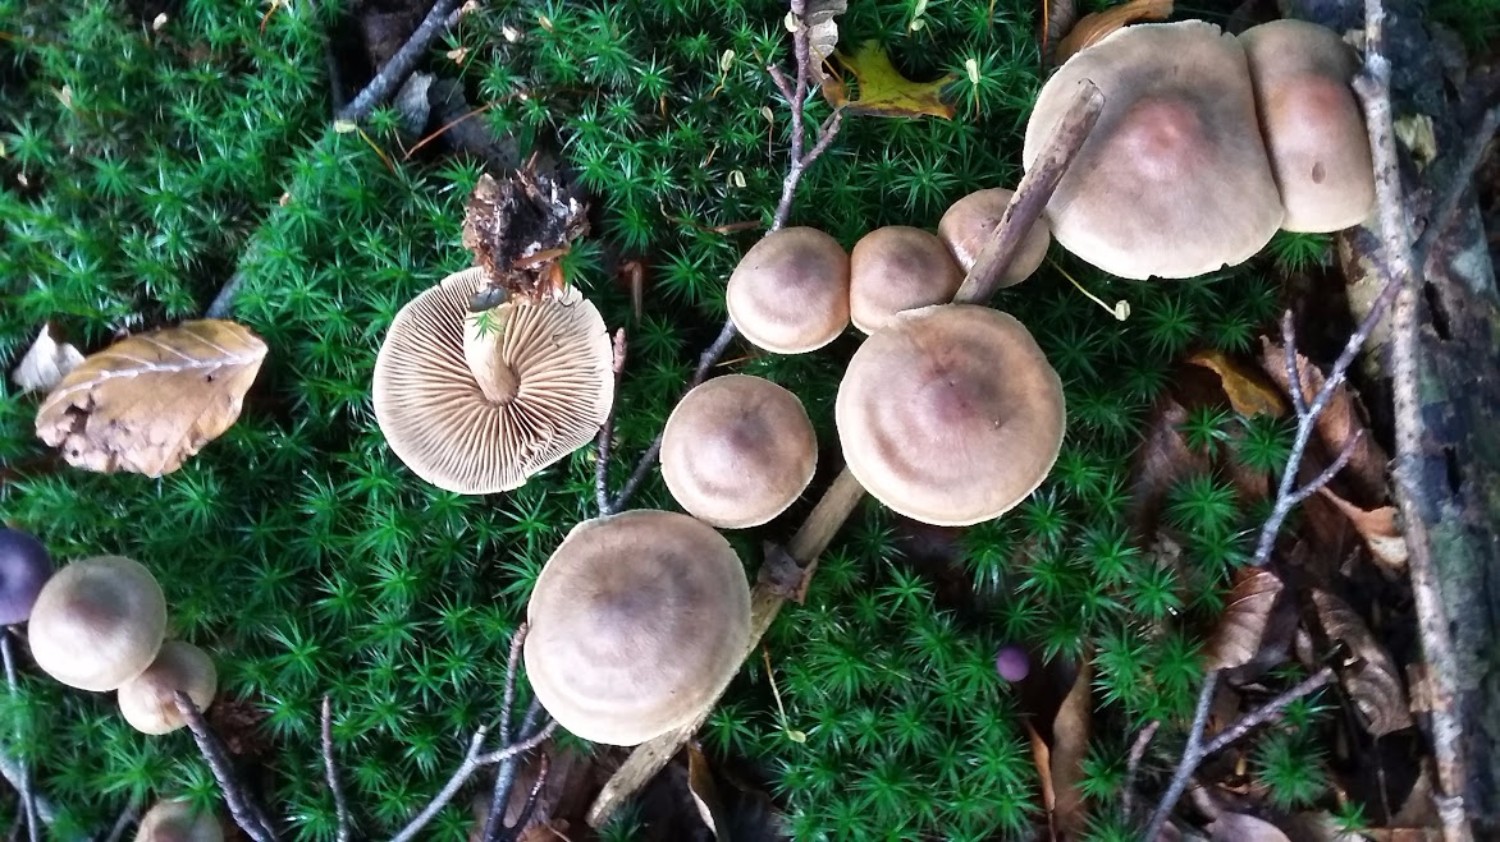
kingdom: Fungi
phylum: Basidiomycota
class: Agaricomycetes
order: Agaricales
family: Cortinariaceae
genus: Cortinarius
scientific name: Cortinarius
